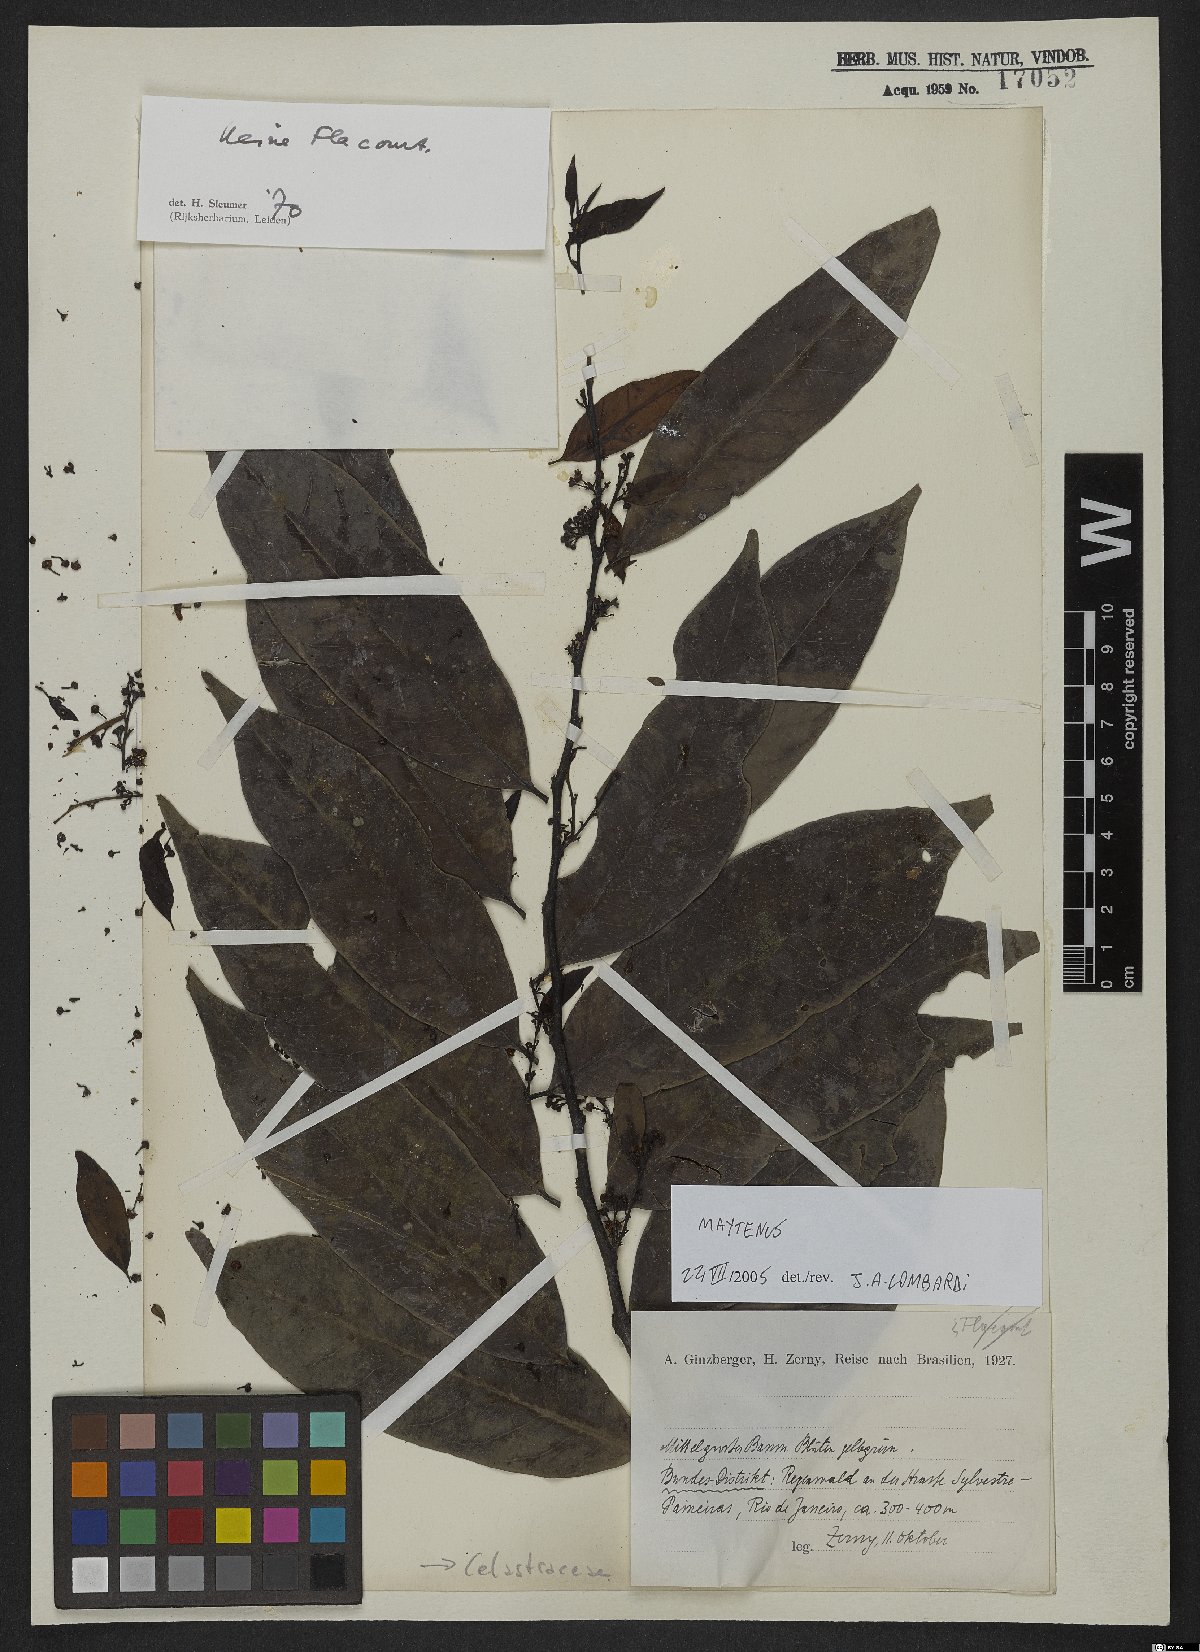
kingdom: Plantae
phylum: Tracheophyta
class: Magnoliopsida
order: Celastrales
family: Celastraceae
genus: Maytenus
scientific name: Maytenus
